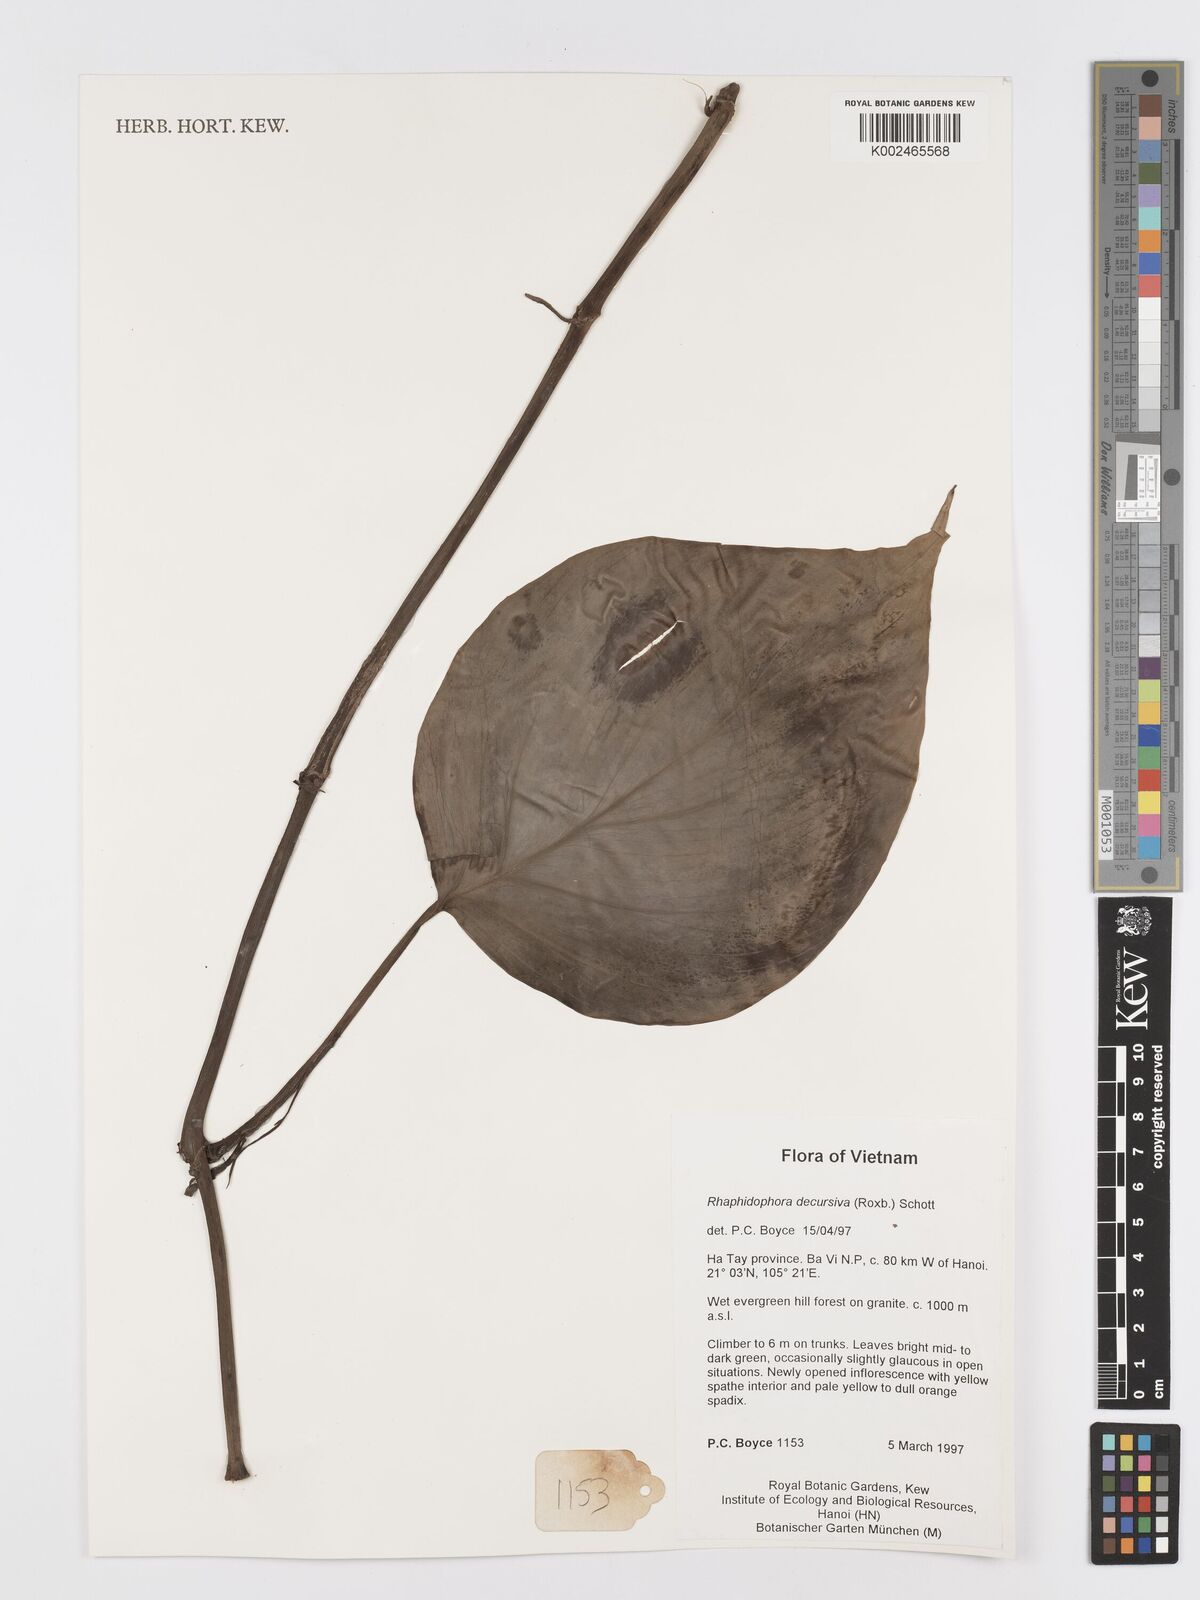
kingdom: Plantae
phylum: Tracheophyta
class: Liliopsida
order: Alismatales
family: Araceae
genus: Rhaphidophora
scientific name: Rhaphidophora decursiva
